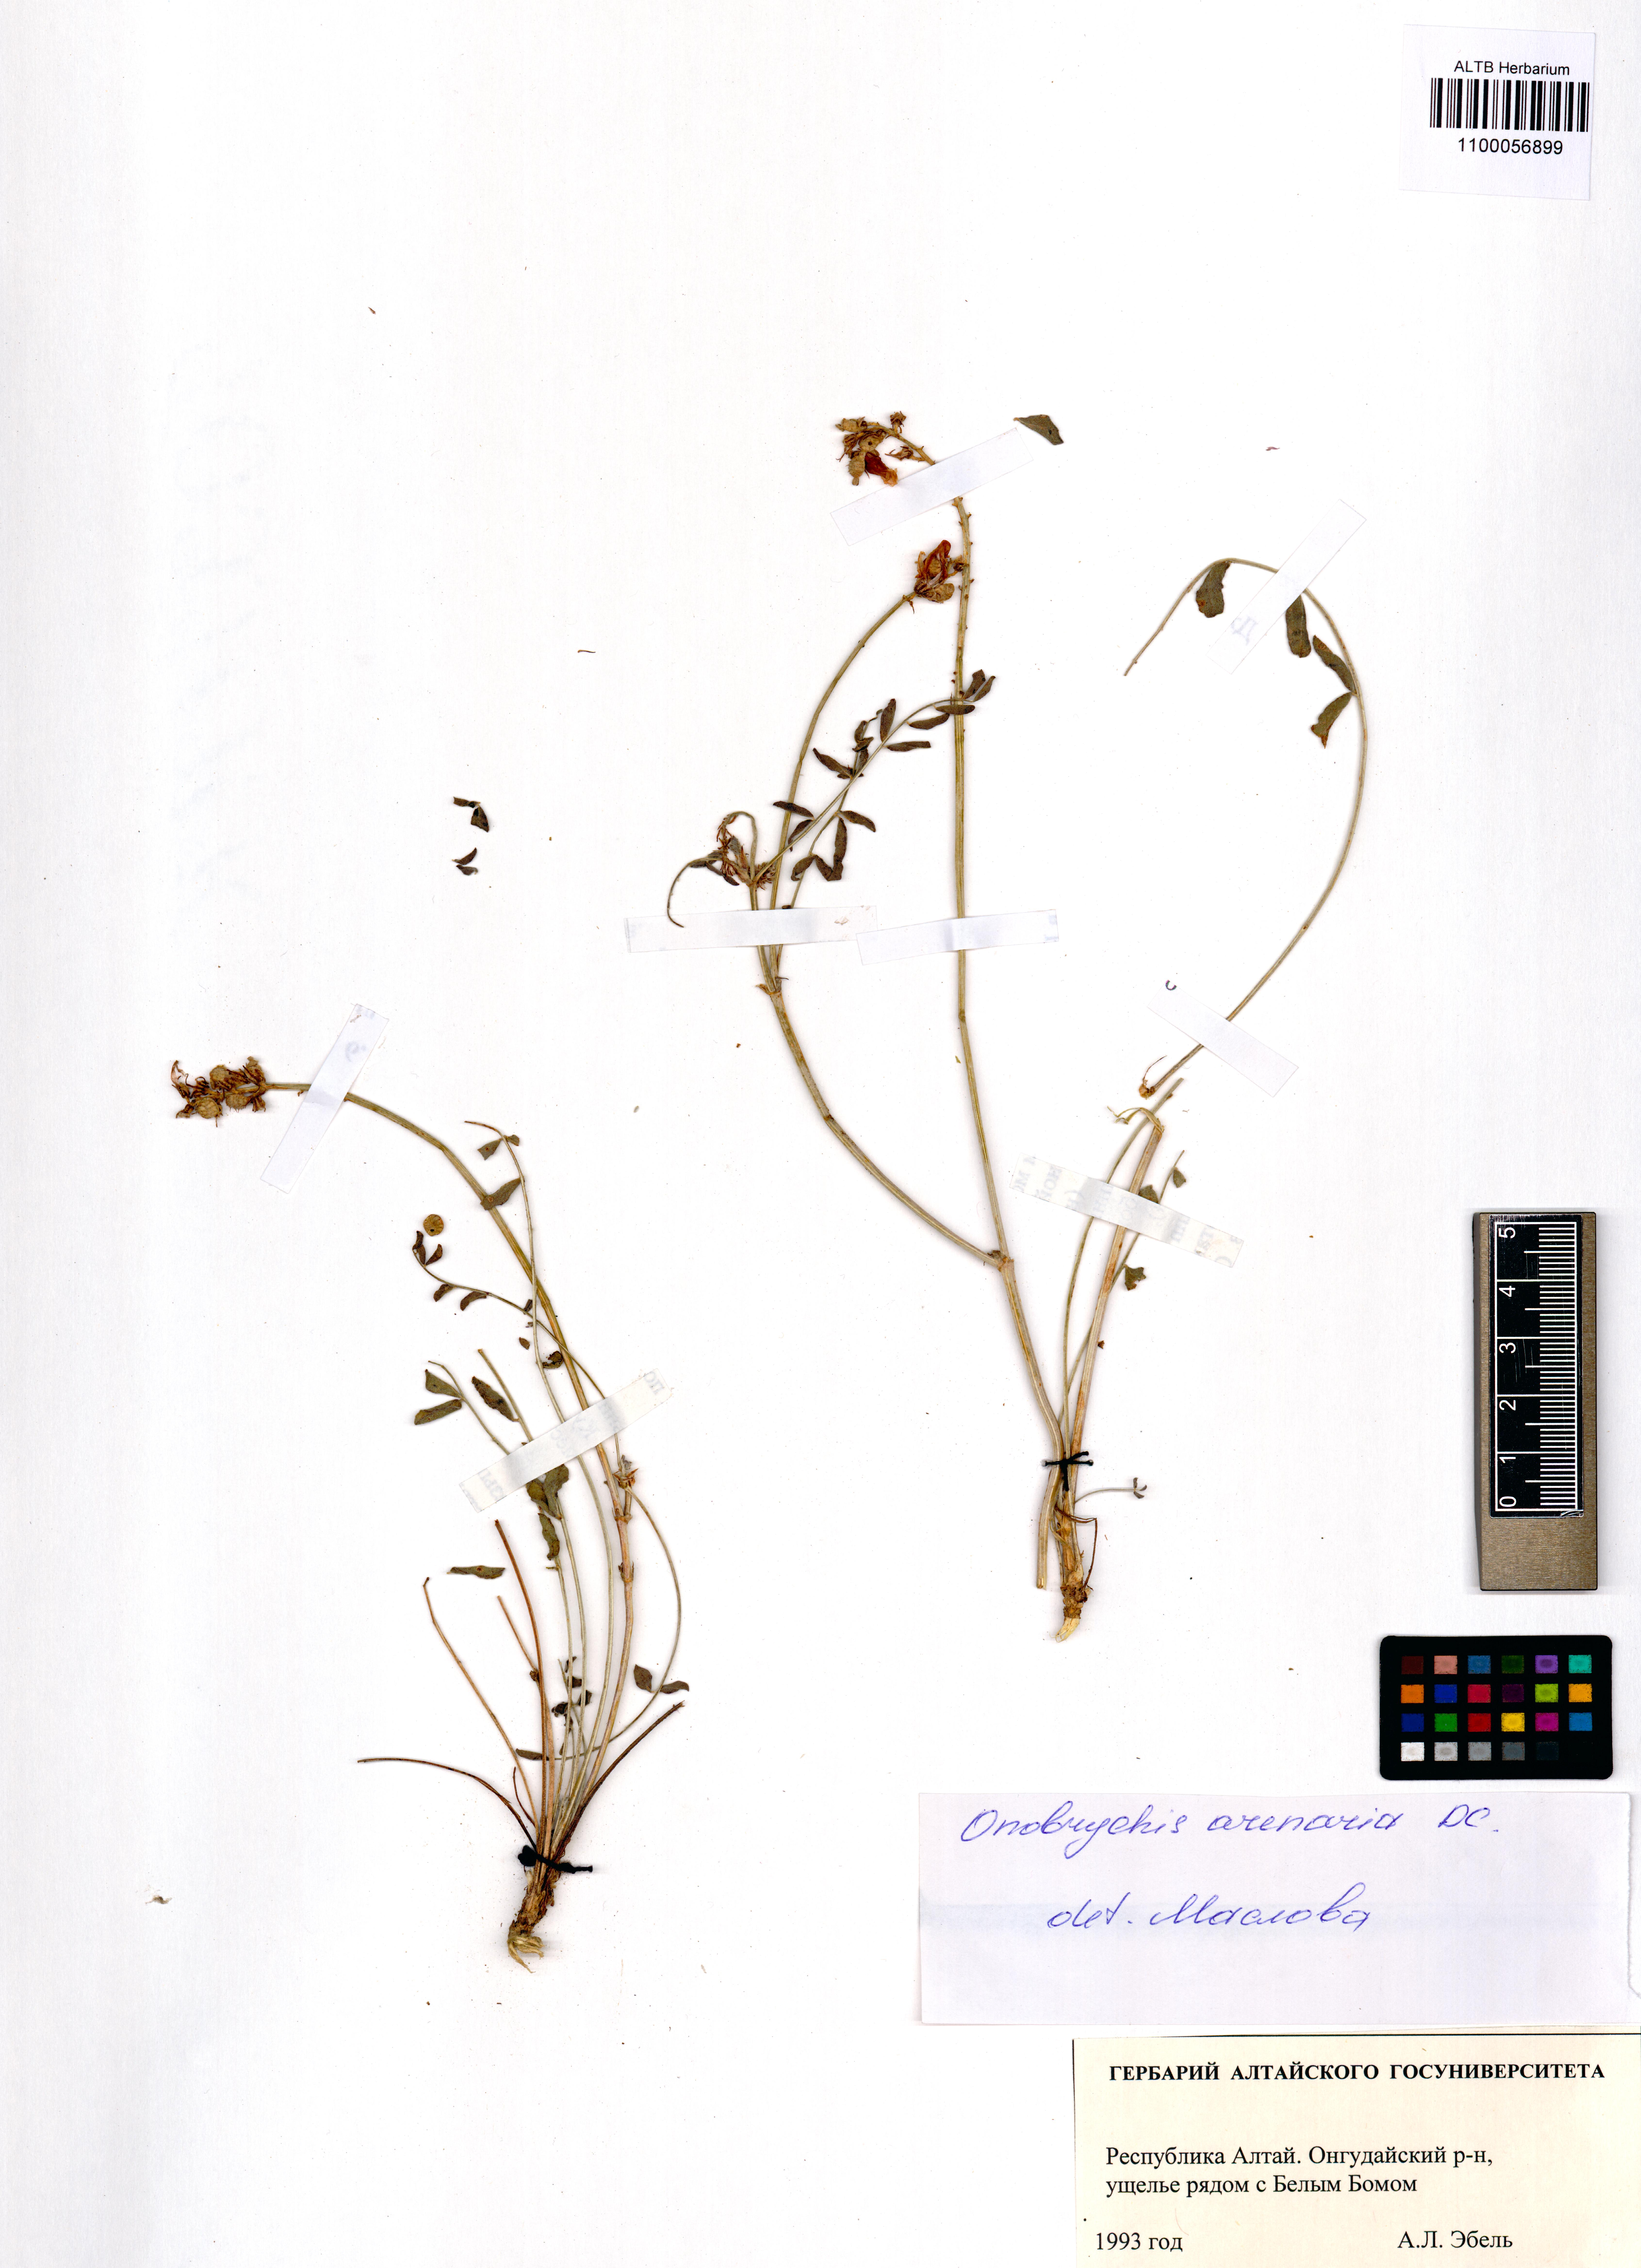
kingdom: Plantae
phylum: Tracheophyta
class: Magnoliopsida
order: Fabales
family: Fabaceae
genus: Onobrychis
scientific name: Onobrychis arenaria
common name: Sand esparcet
